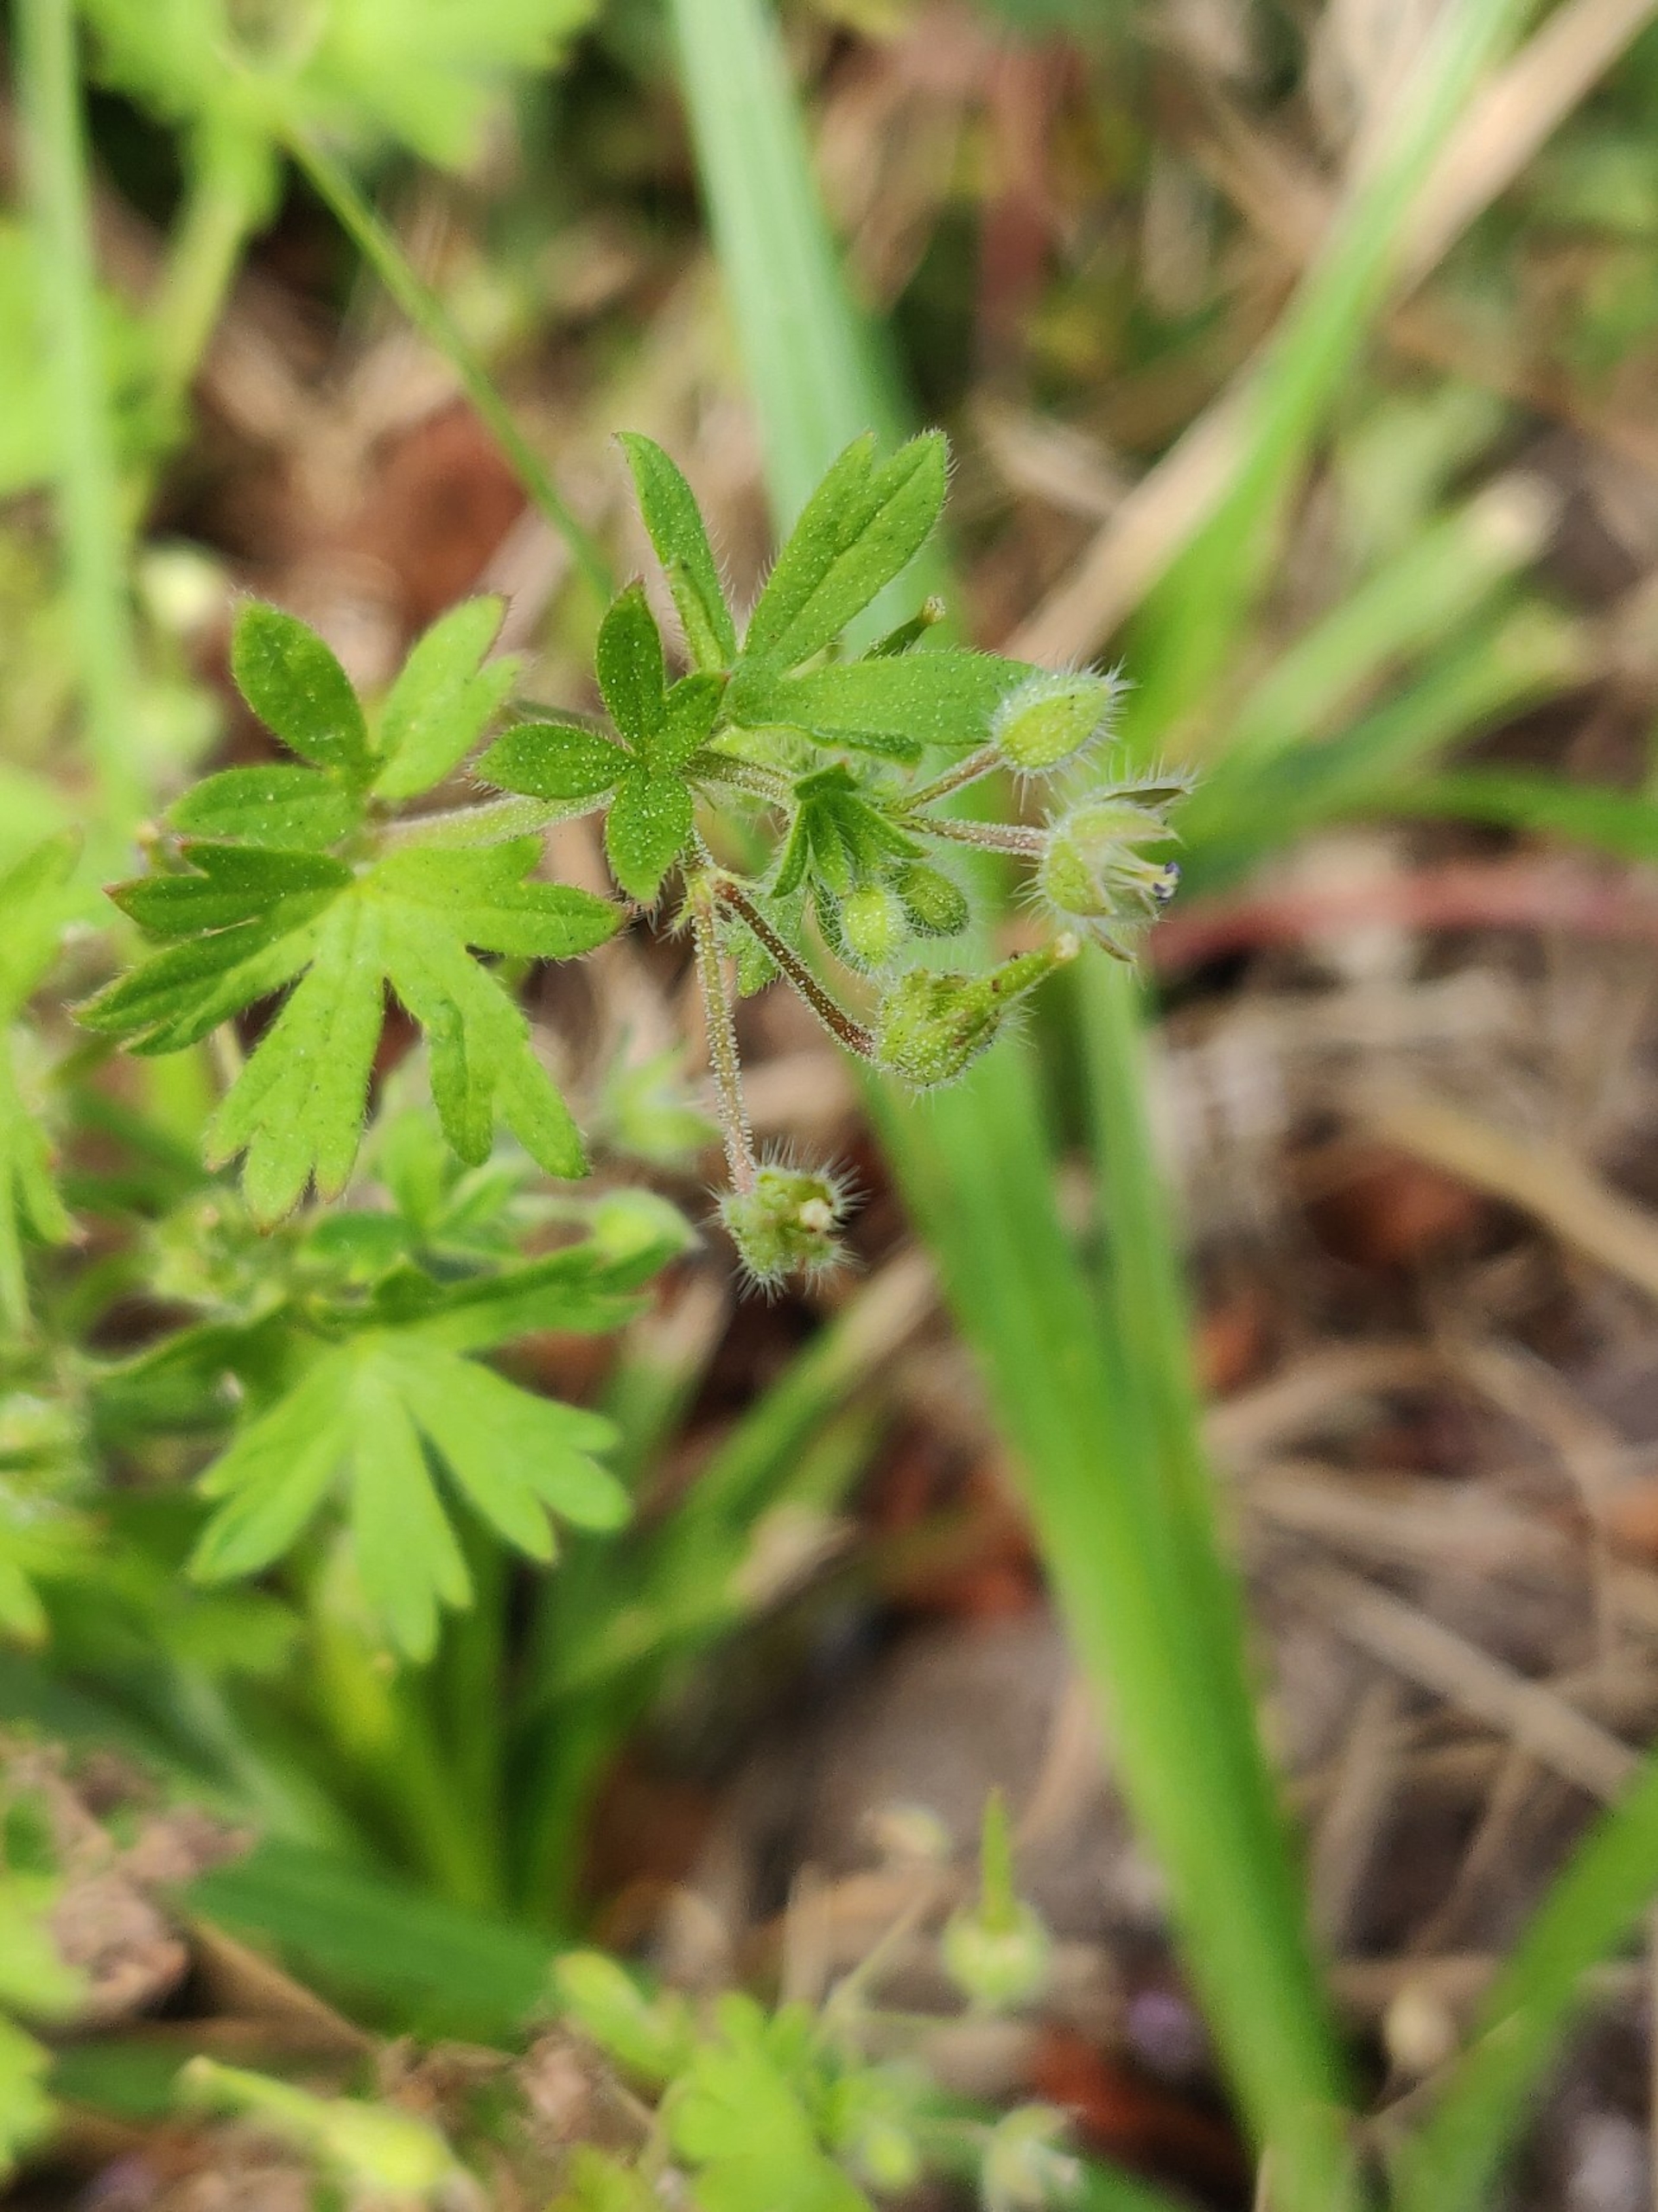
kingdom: Plantae
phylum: Tracheophyta
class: Magnoliopsida
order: Geraniales
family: Geraniaceae
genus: Geranium
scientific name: Geranium pusillum
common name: Liden storkenæb
